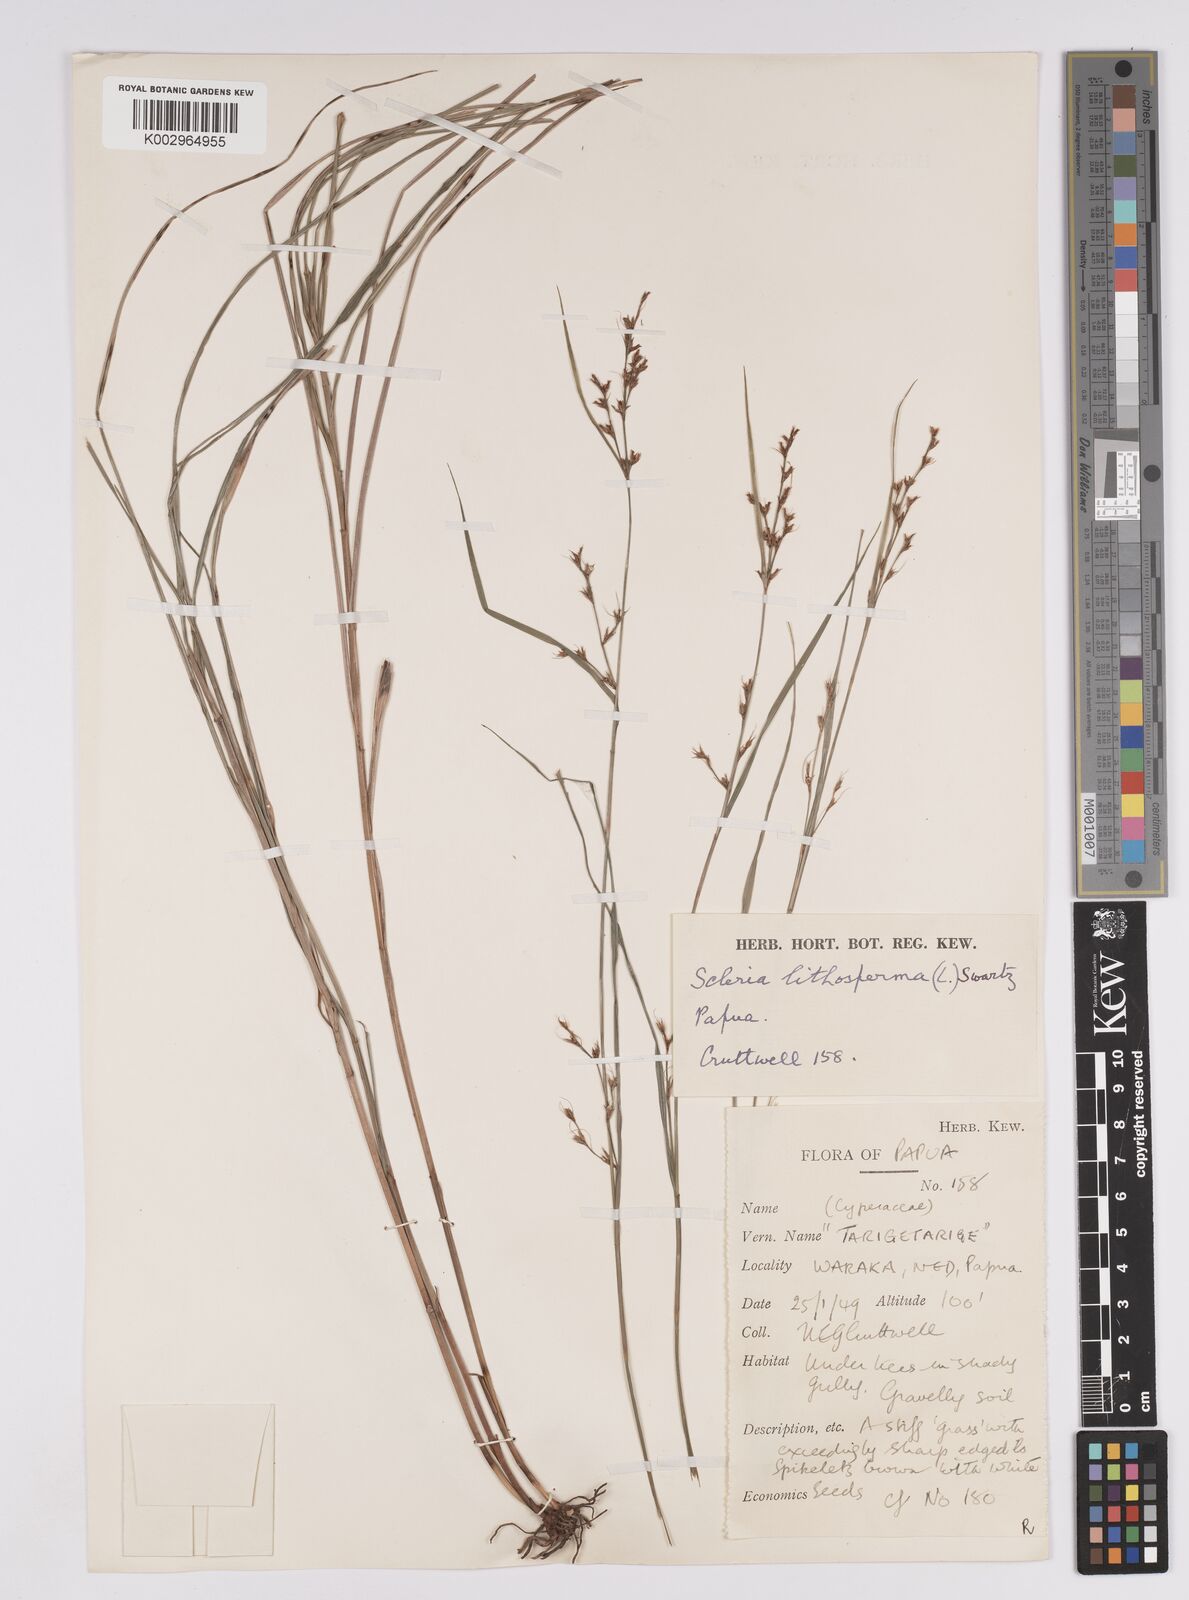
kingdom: Plantae
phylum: Tracheophyta
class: Liliopsida
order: Poales
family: Cyperaceae
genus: Scleria
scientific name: Scleria lithosperma
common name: Florida keys nut-rush
